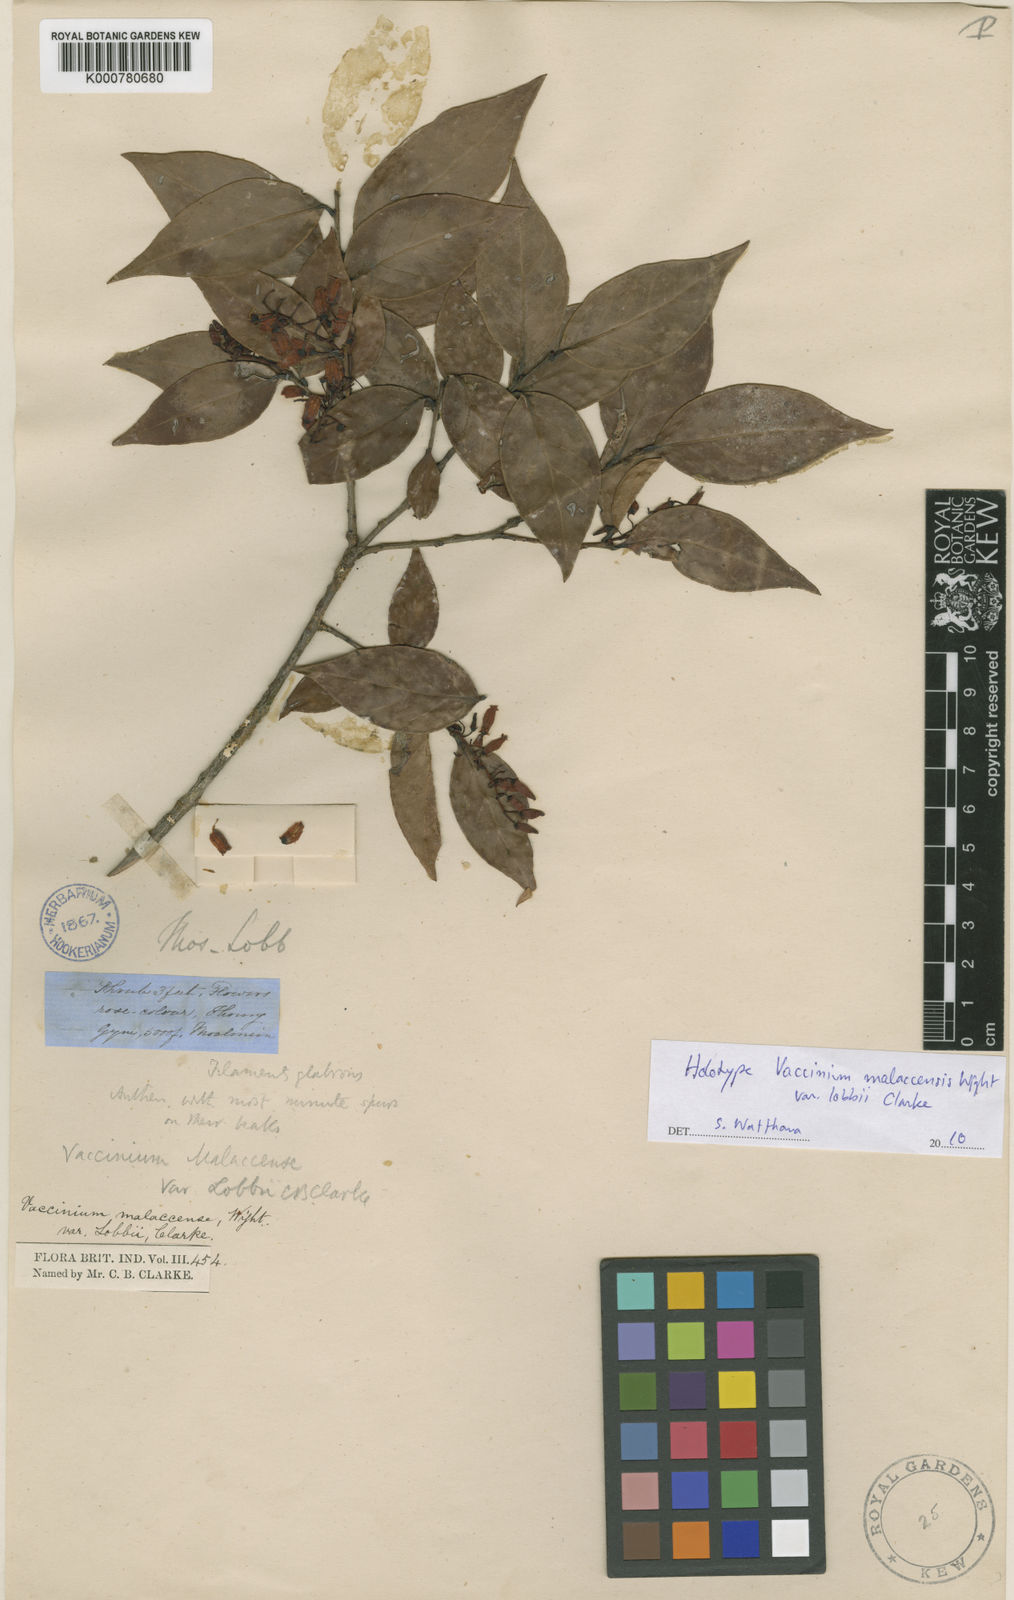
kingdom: Plantae
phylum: Tracheophyta
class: Magnoliopsida
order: Ericales
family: Ericaceae
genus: Vaccinium
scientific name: Vaccinium exaristatum
